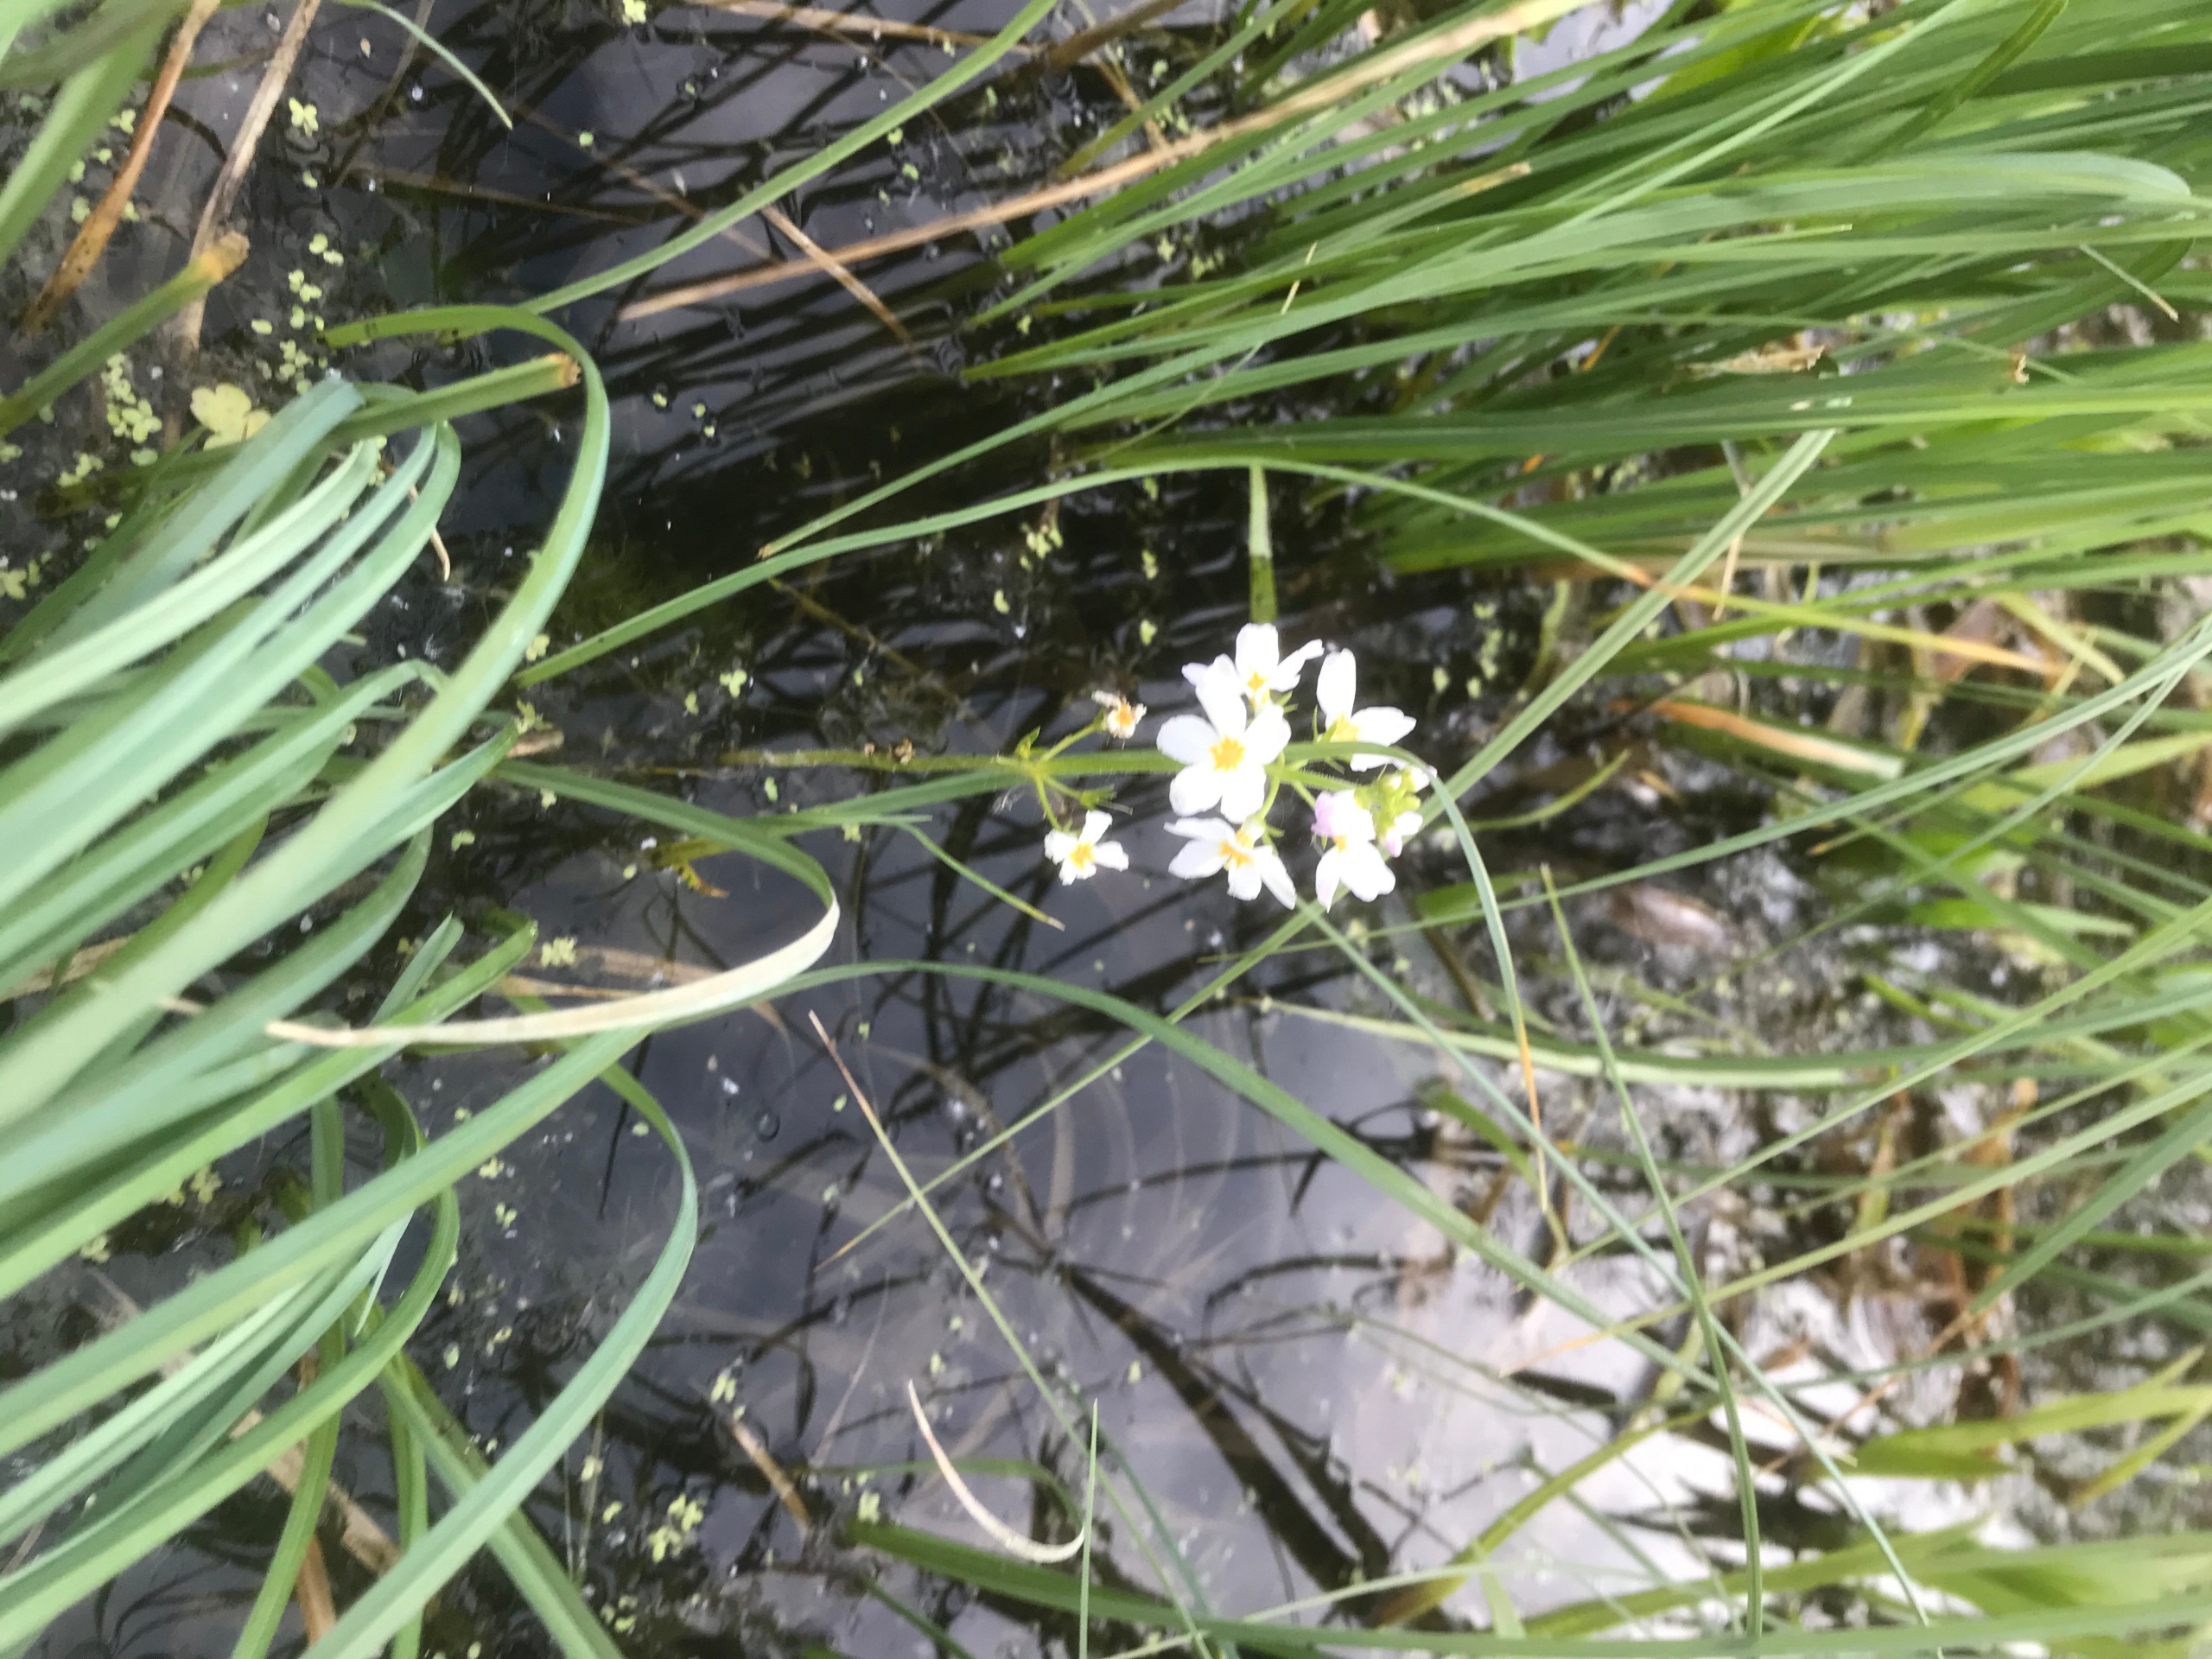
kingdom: Plantae
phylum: Tracheophyta
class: Magnoliopsida
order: Ericales
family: Primulaceae
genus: Hottonia
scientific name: Hottonia palustris
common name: Vandrøllike
